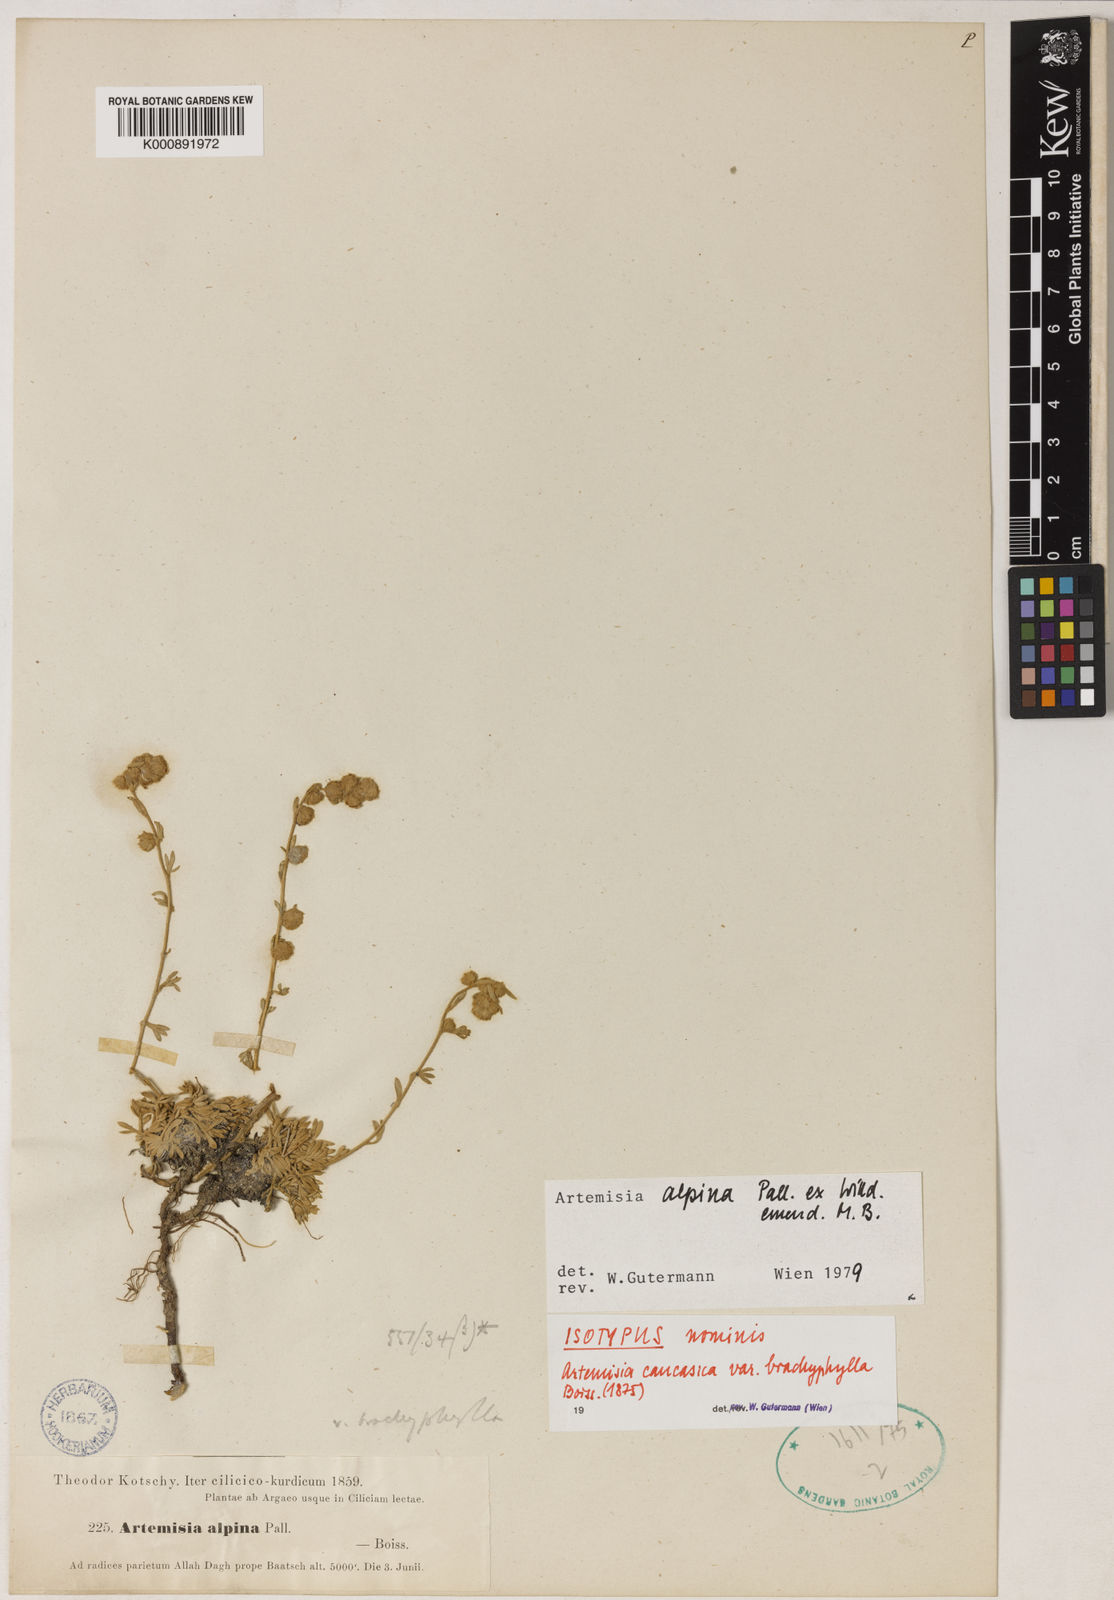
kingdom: Plantae
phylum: Tracheophyta
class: Magnoliopsida
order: Asterales
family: Asteraceae
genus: Artemisia
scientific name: Artemisia alpina
